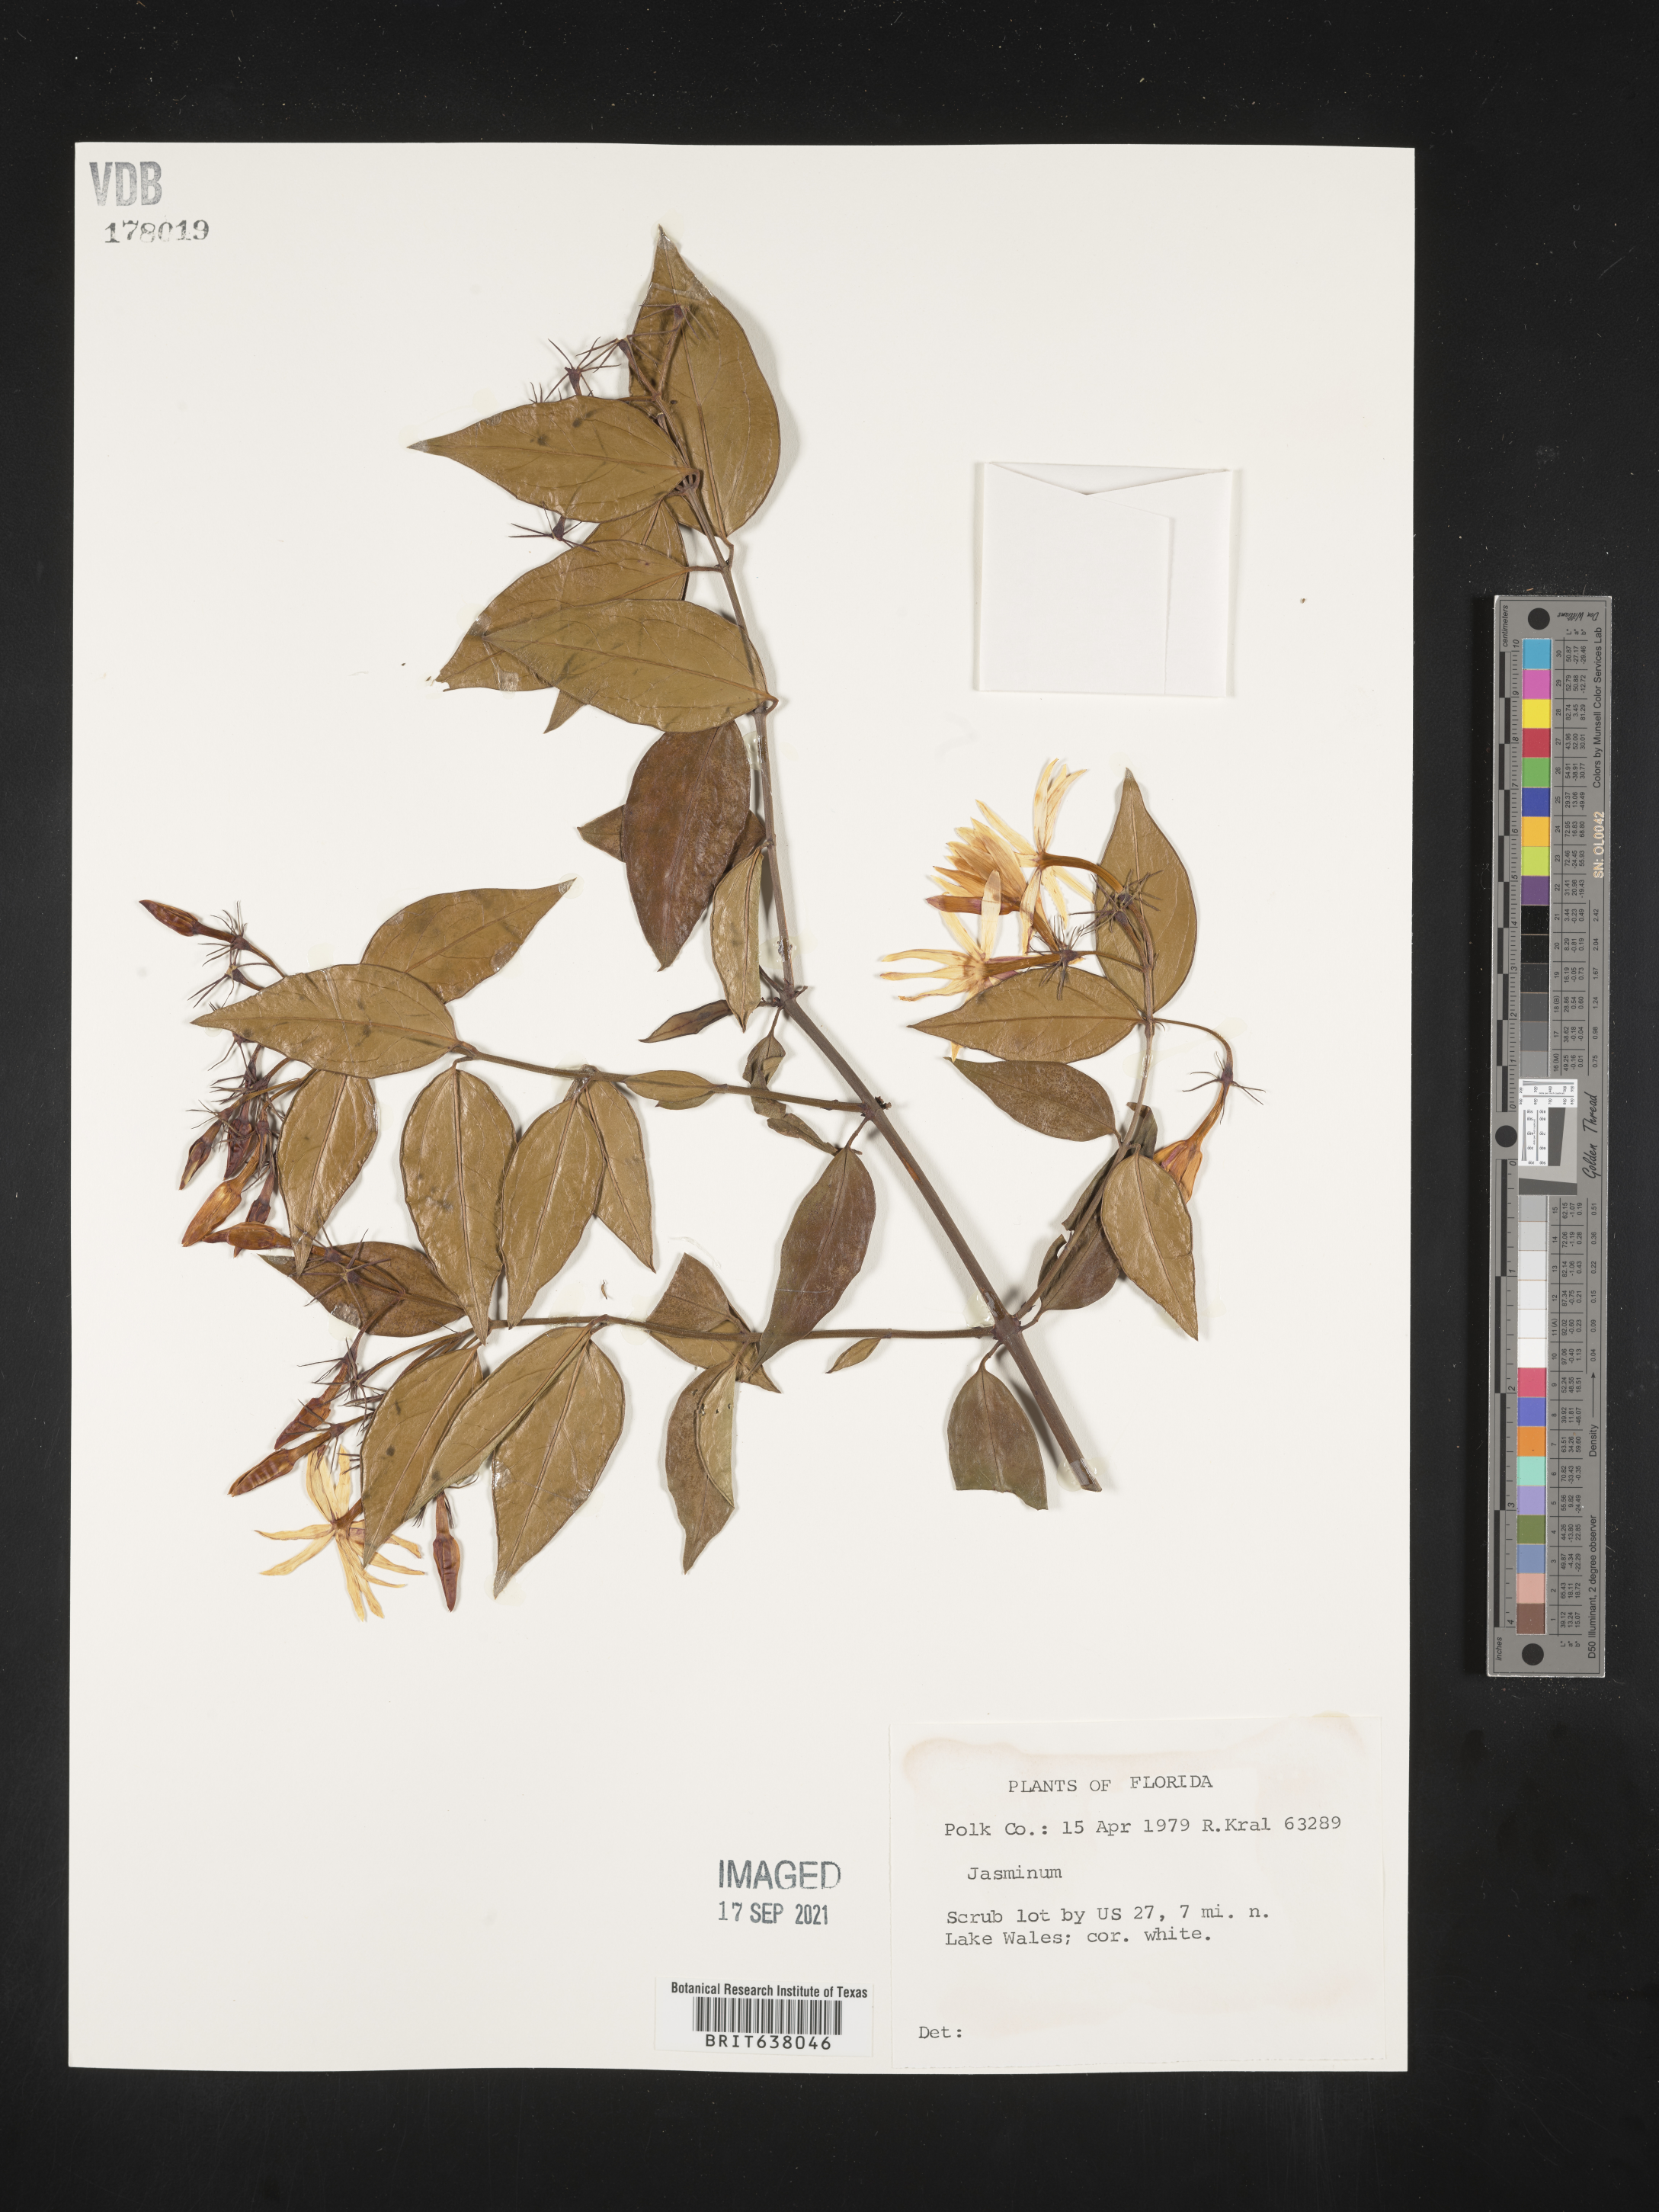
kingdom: Plantae
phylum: Tracheophyta
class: Magnoliopsida
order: Lamiales
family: Oleaceae
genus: Jasminum
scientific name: Jasminum
